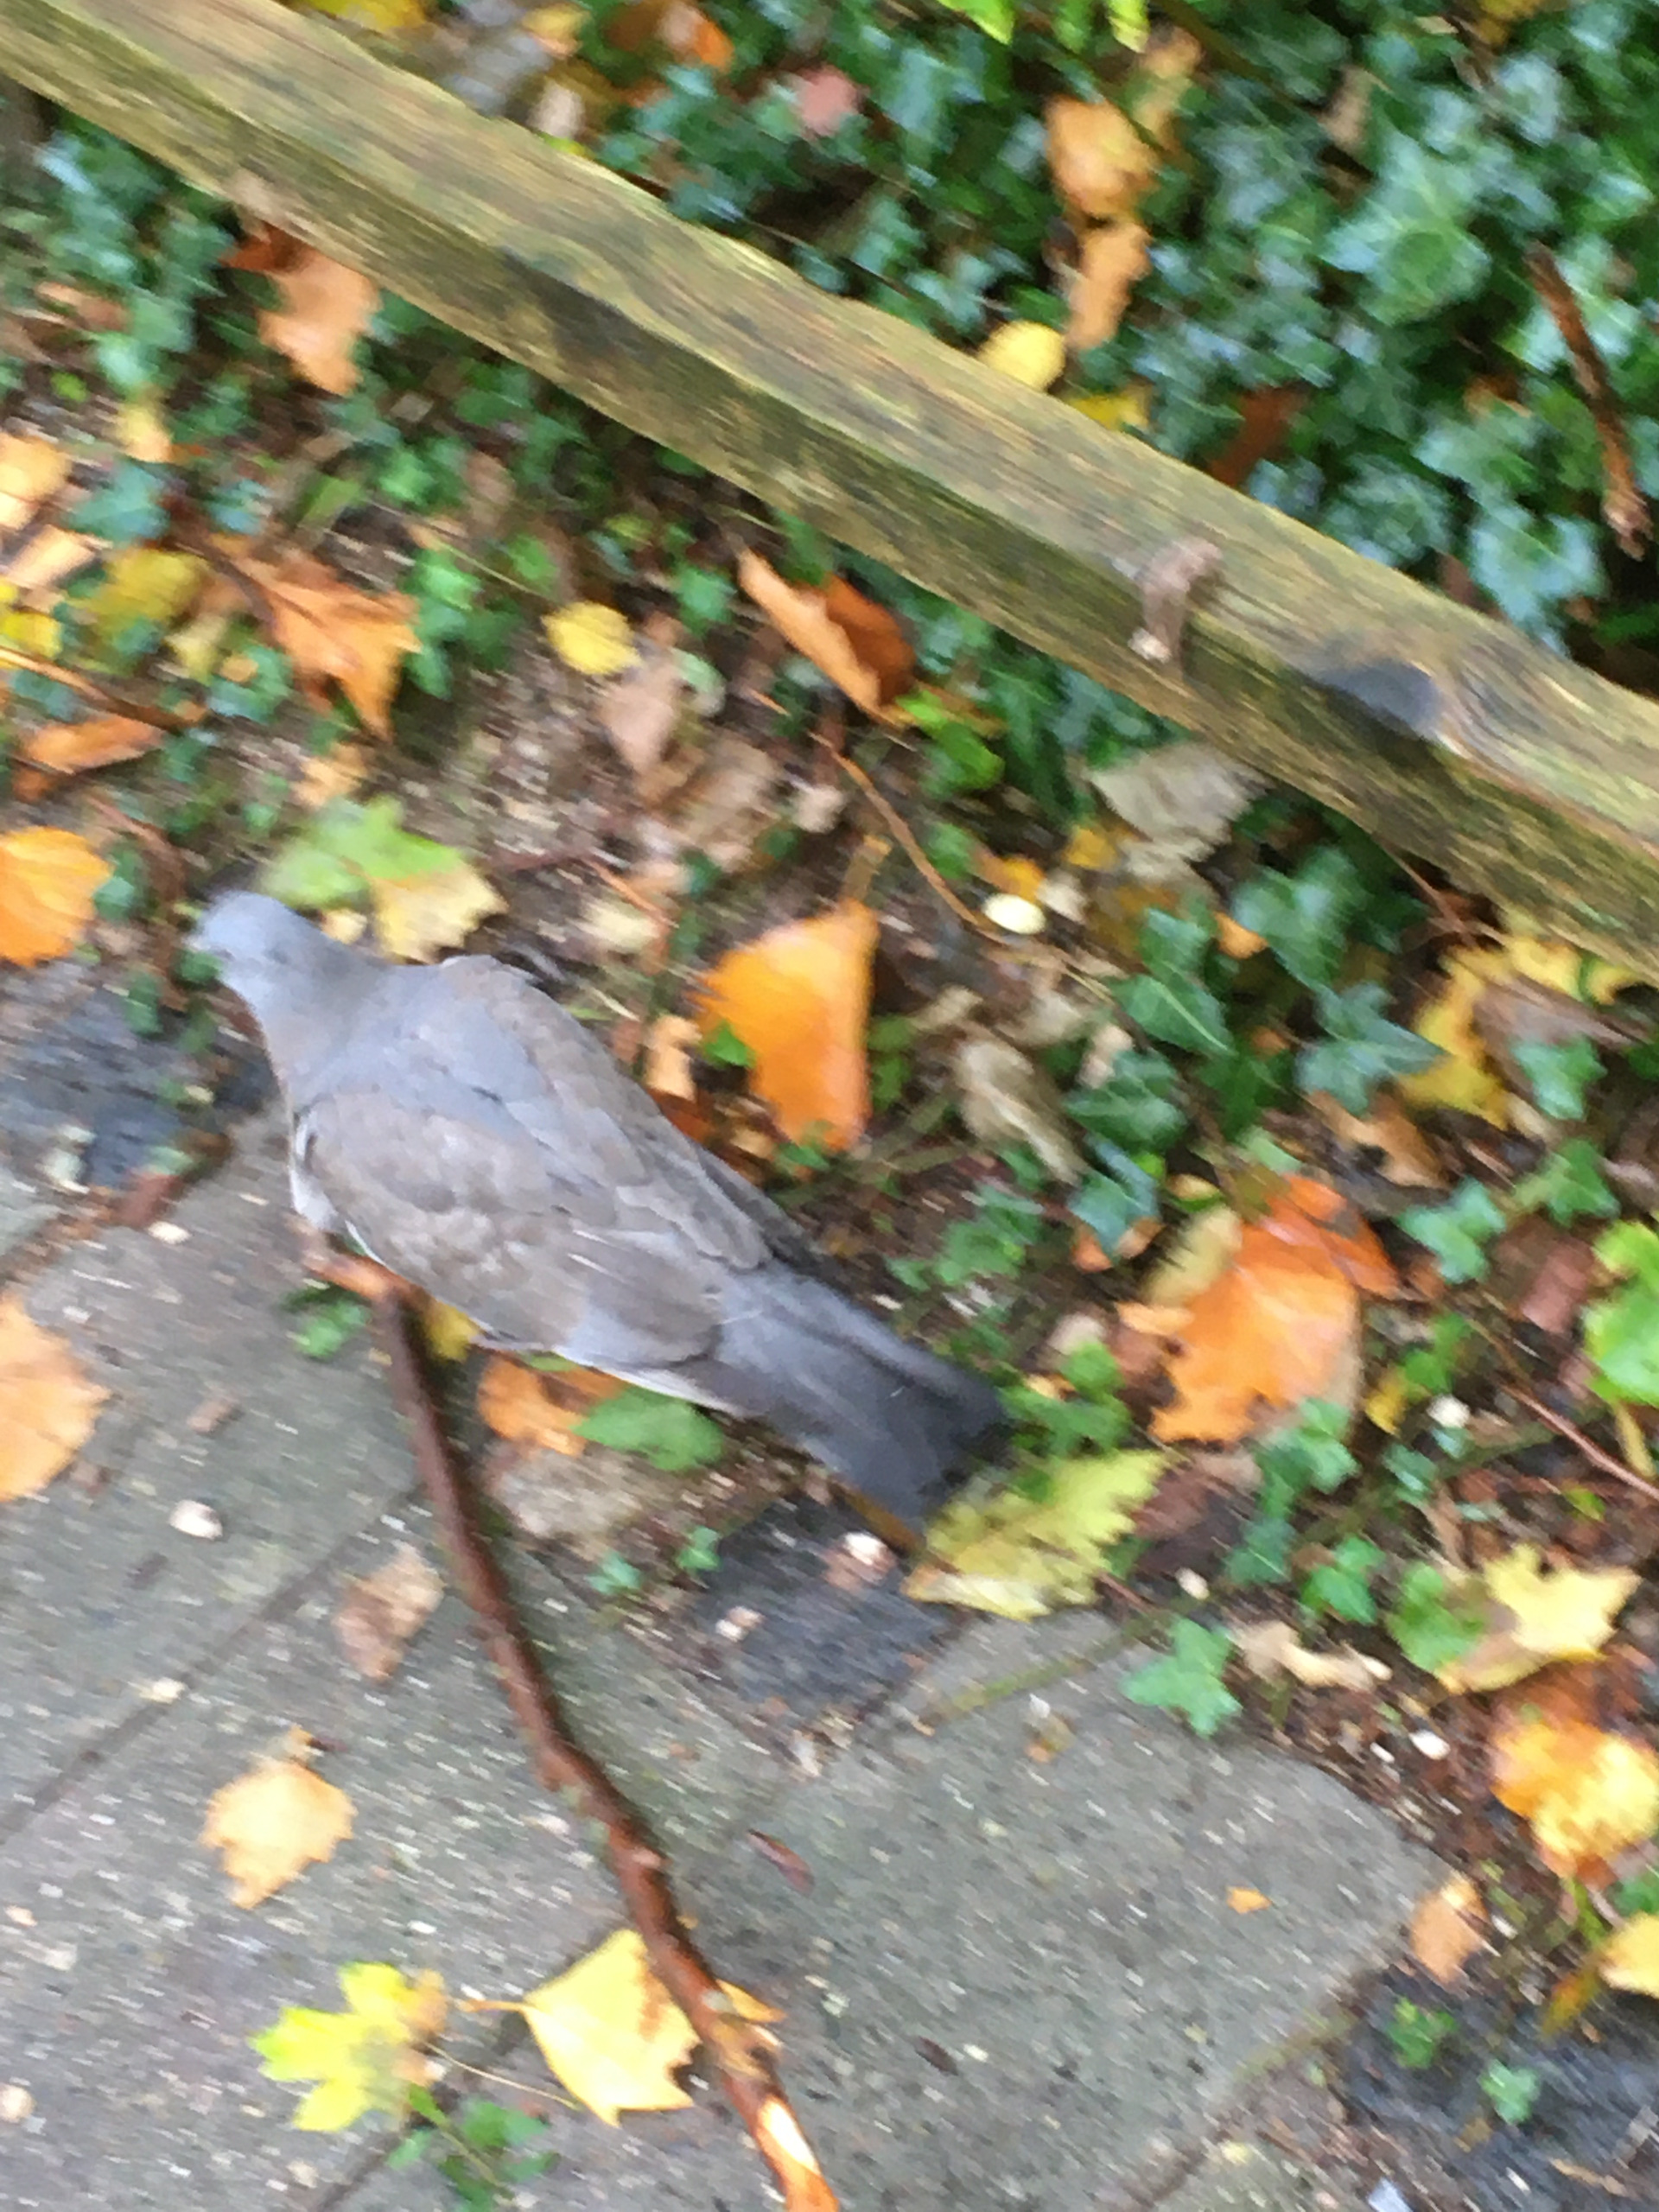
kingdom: Animalia
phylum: Chordata
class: Aves
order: Columbiformes
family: Columbidae
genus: Columba
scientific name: Columba palumbus
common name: Ringdue
